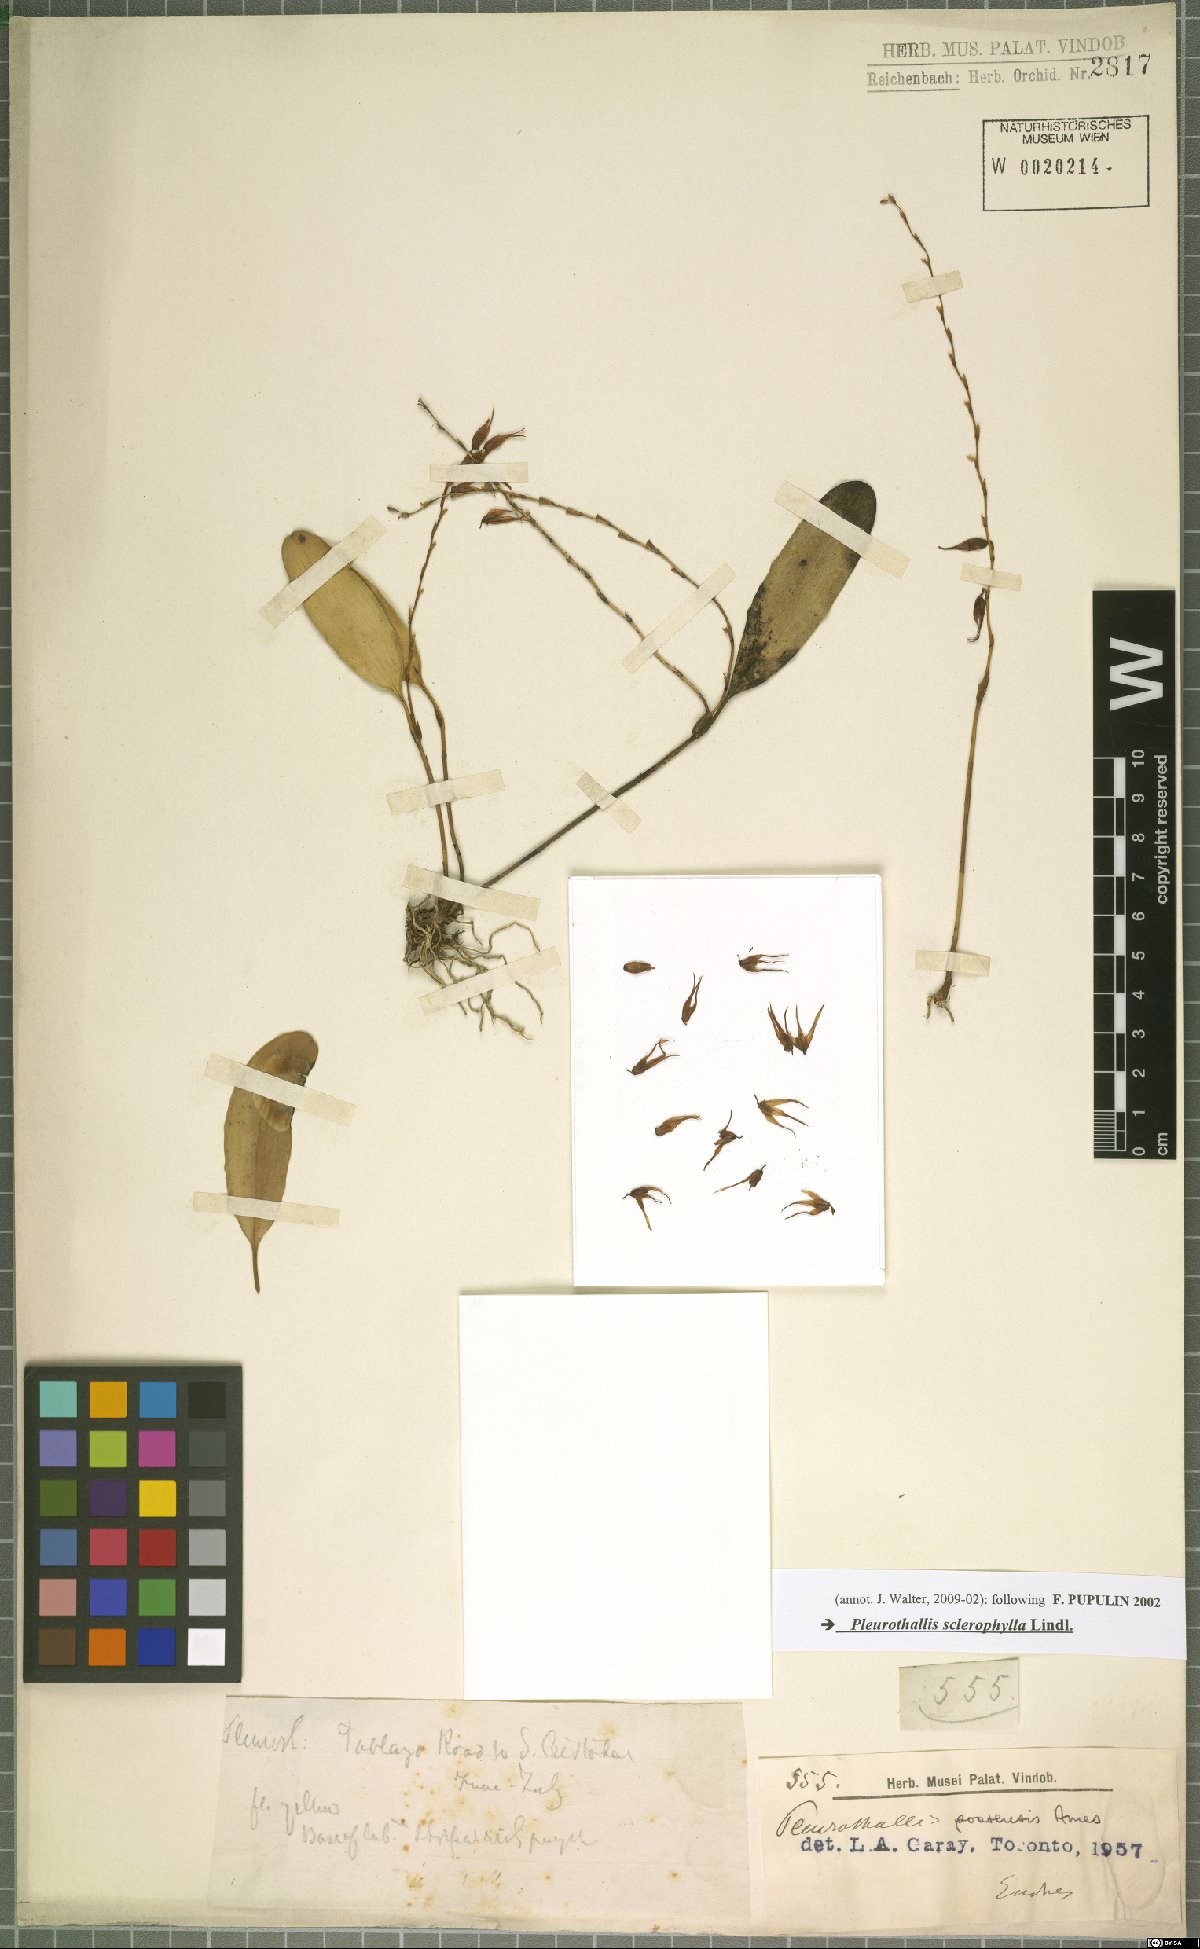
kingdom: Plantae
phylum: Tracheophyta
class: Liliopsida
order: Asparagales
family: Orchidaceae
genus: Stelis
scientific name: Stelis sclerophylla
